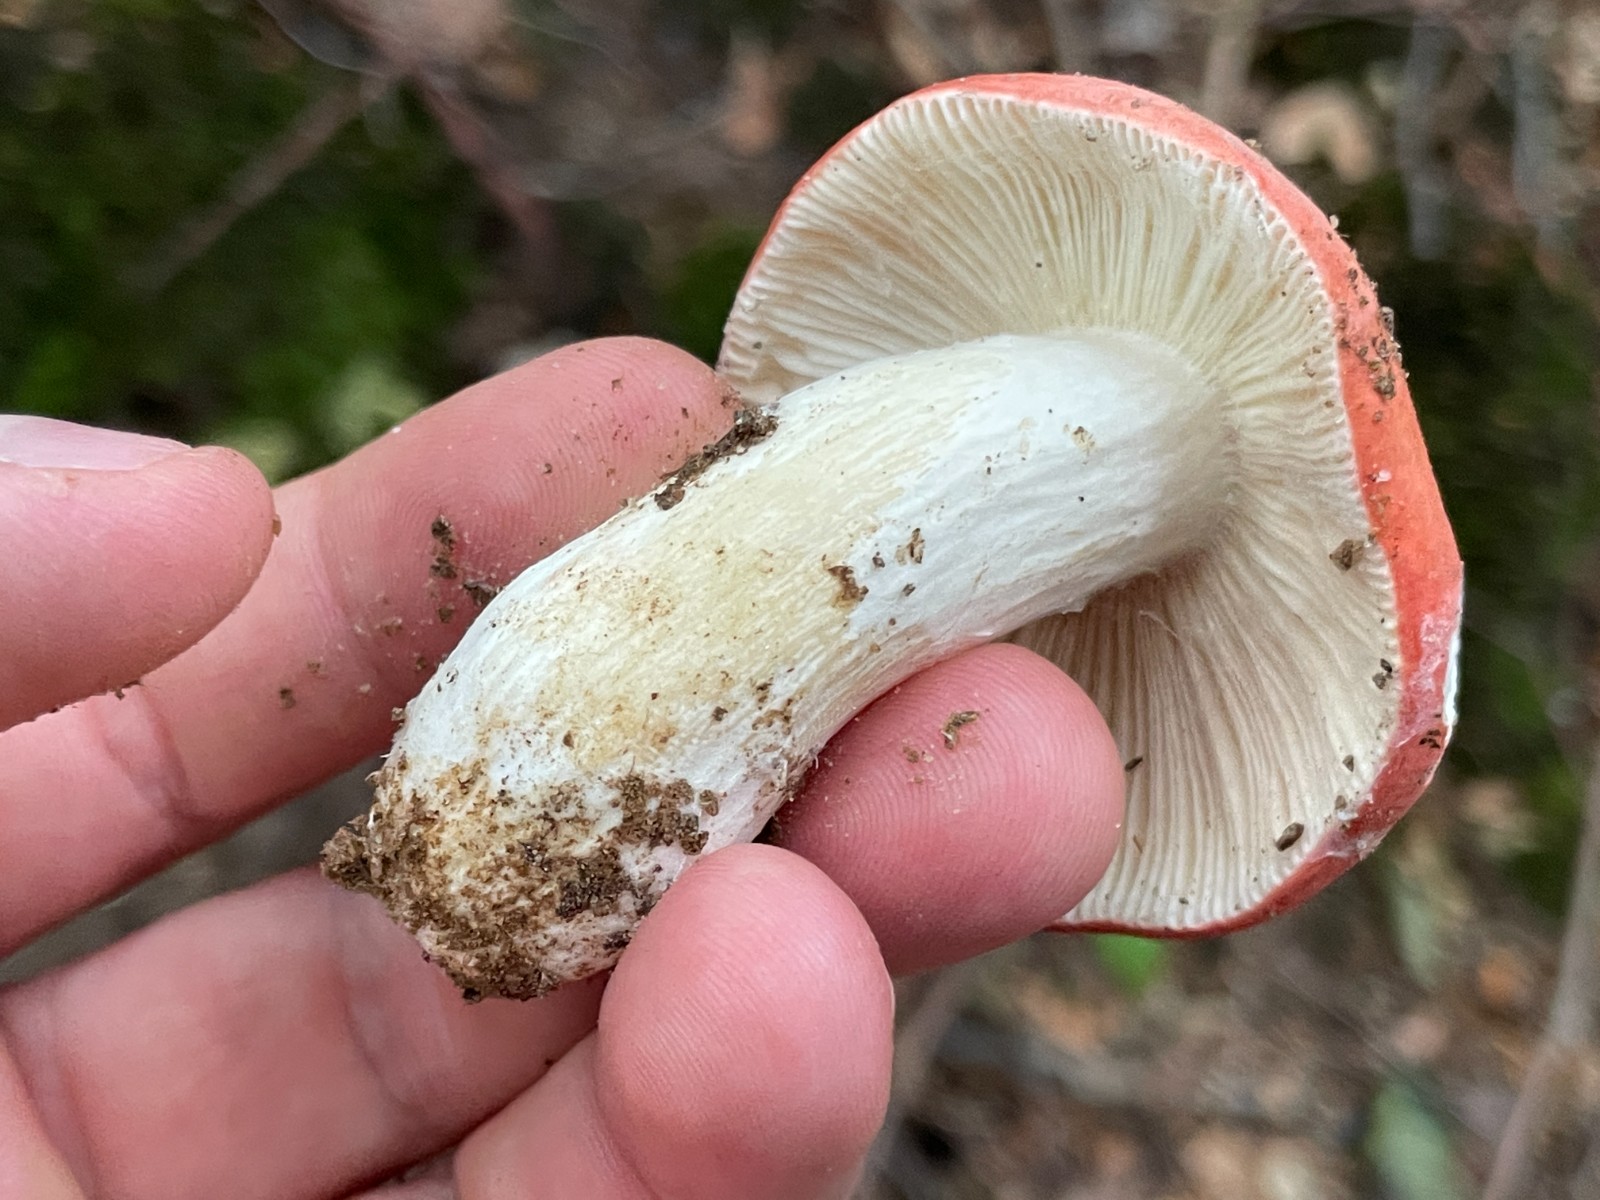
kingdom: Fungi
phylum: Basidiomycota
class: Agaricomycetes
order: Russulales
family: Russulaceae
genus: Russula
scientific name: Russula rosea
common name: fastkødet skørhat
